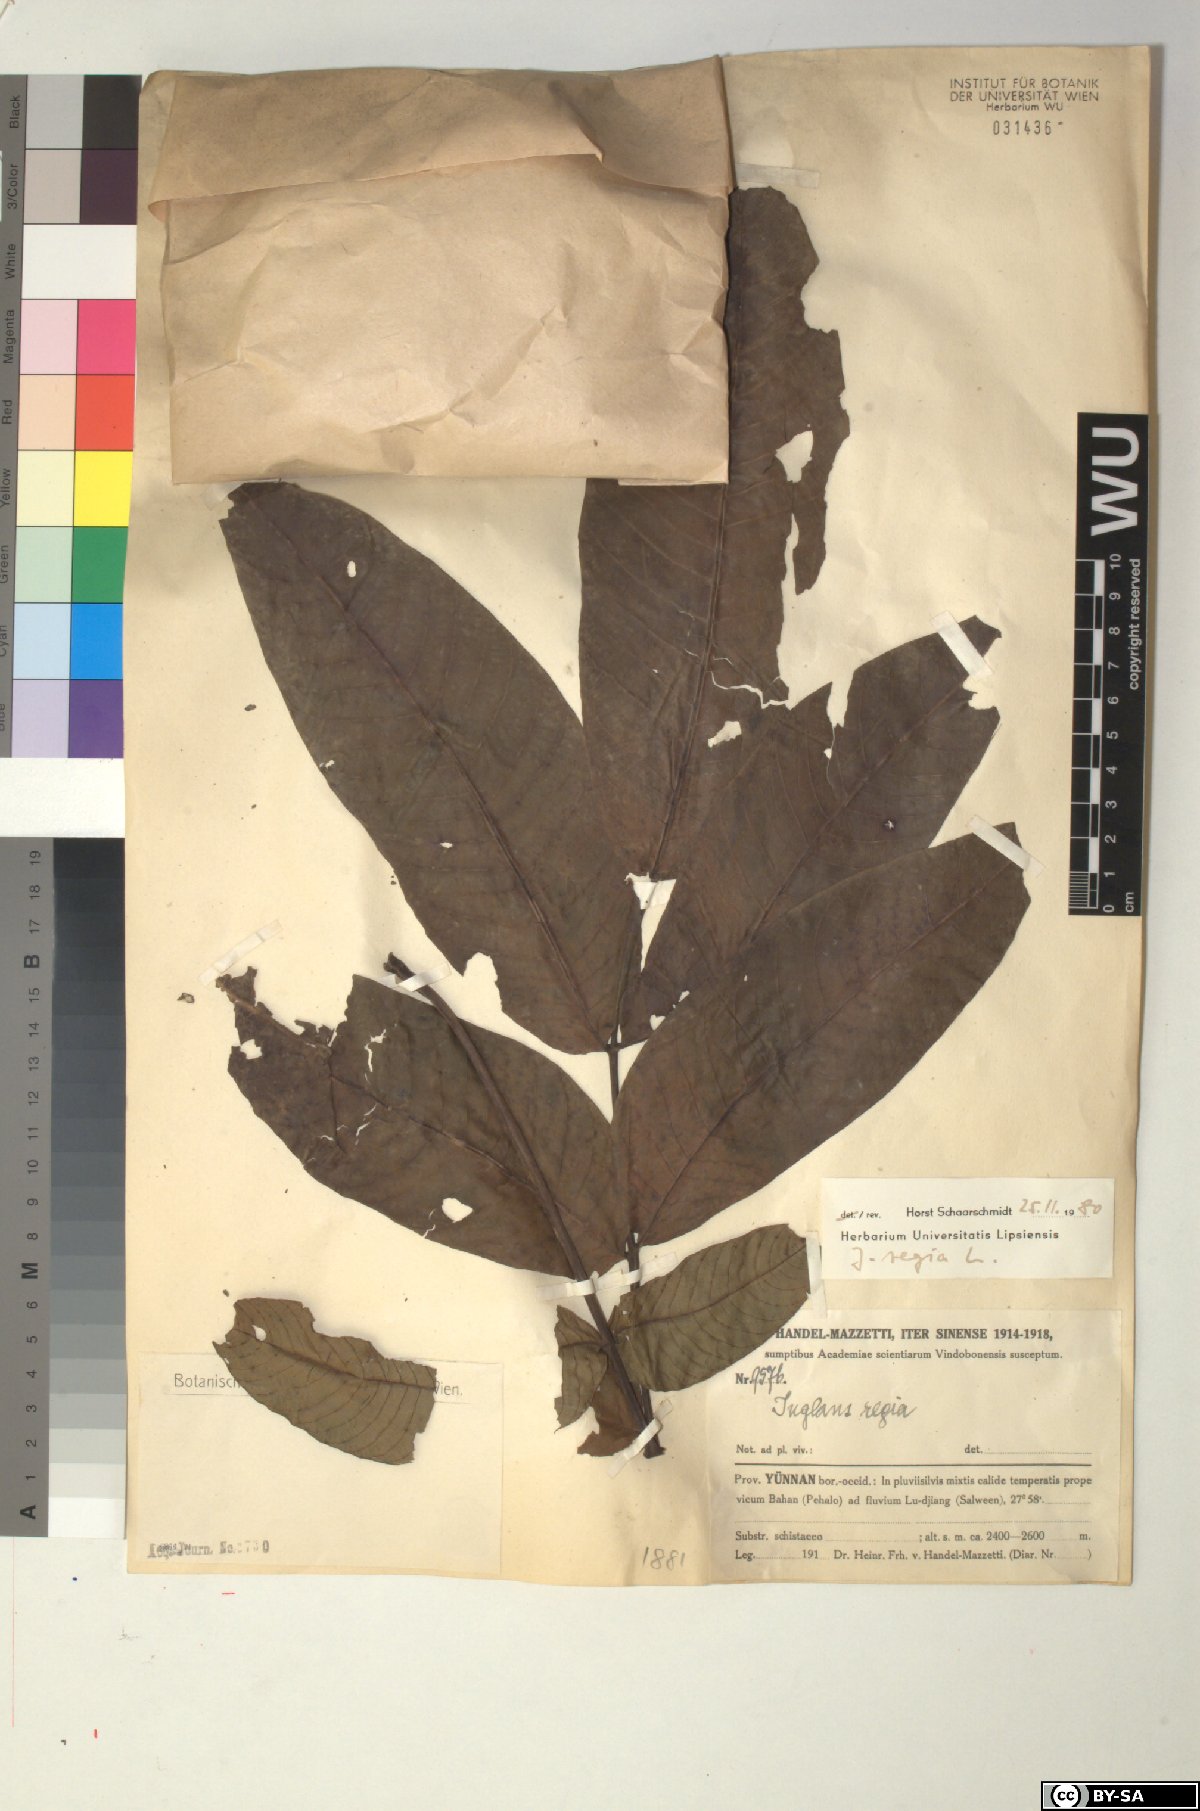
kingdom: Plantae
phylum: Tracheophyta
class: Magnoliopsida
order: Fagales
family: Juglandaceae
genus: Juglans
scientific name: Juglans regia
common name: Walnut
